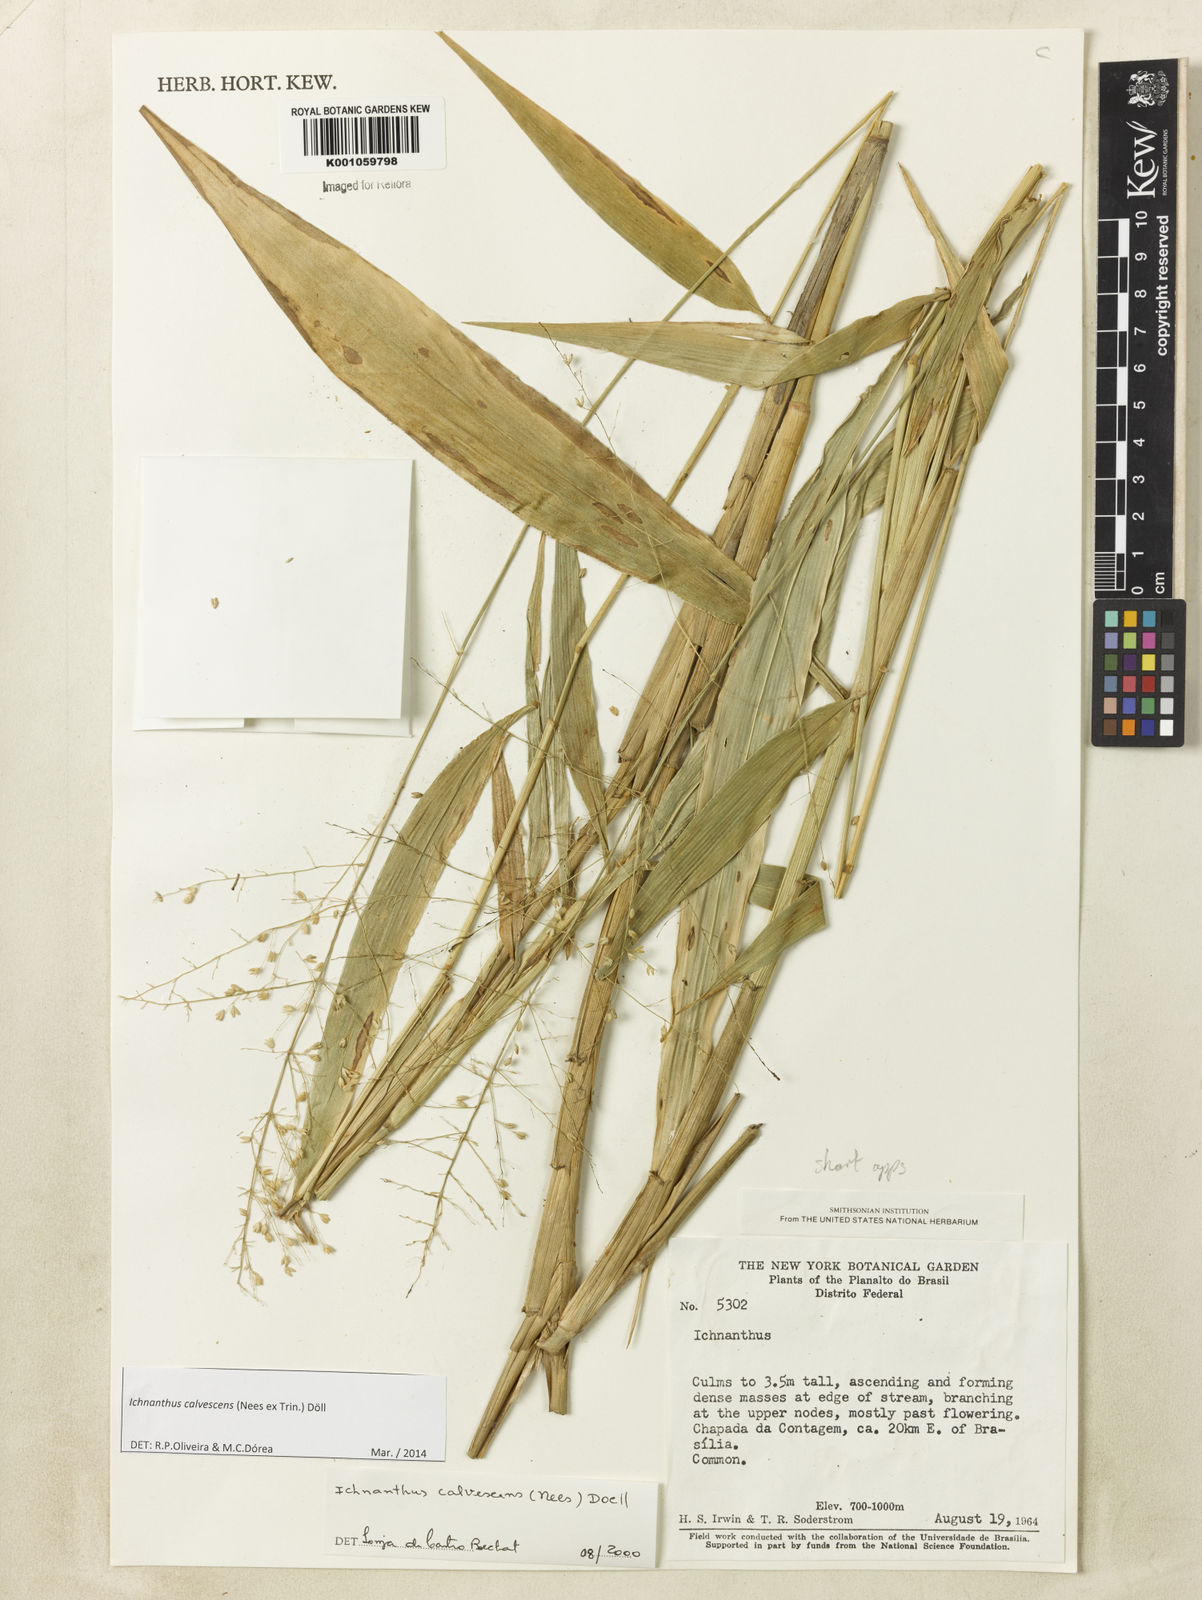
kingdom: Plantae
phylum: Tracheophyta
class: Liliopsida
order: Poales
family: Poaceae
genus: Ichnanthus
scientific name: Ichnanthus
